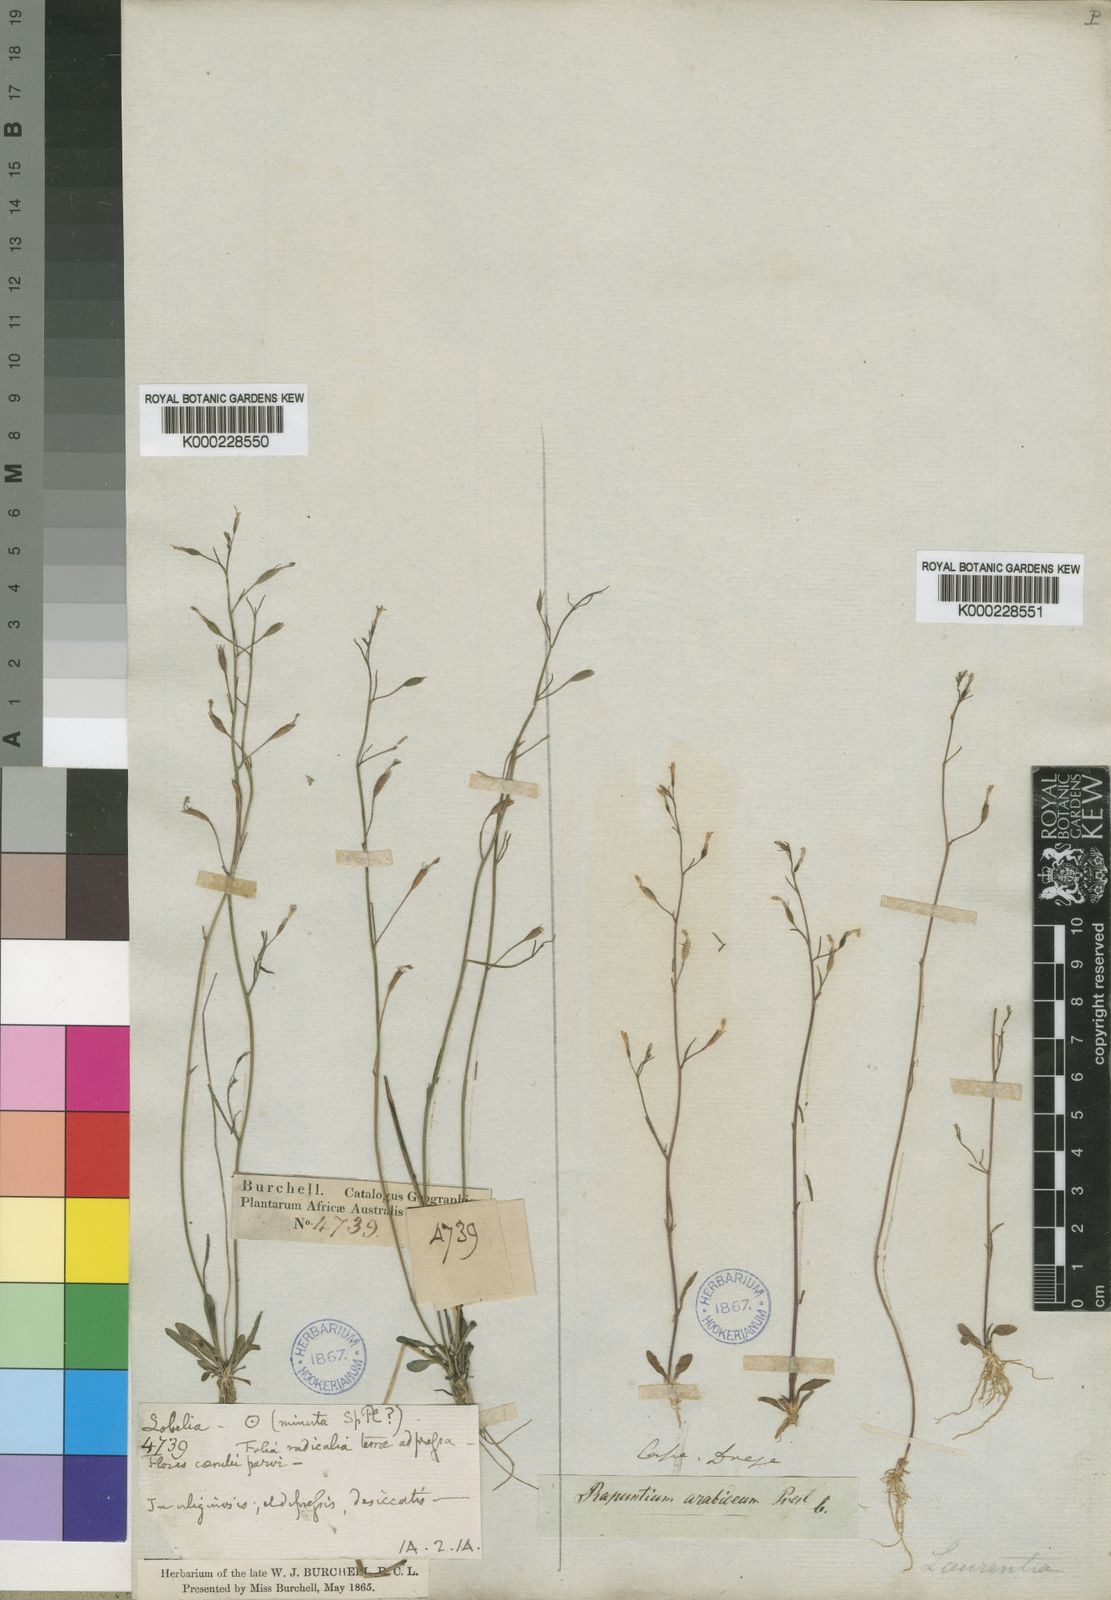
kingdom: Plantae
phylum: Tracheophyta
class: Magnoliopsida
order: Asterales
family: Campanulaceae
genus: Wimmerella
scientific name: Wimmerella
